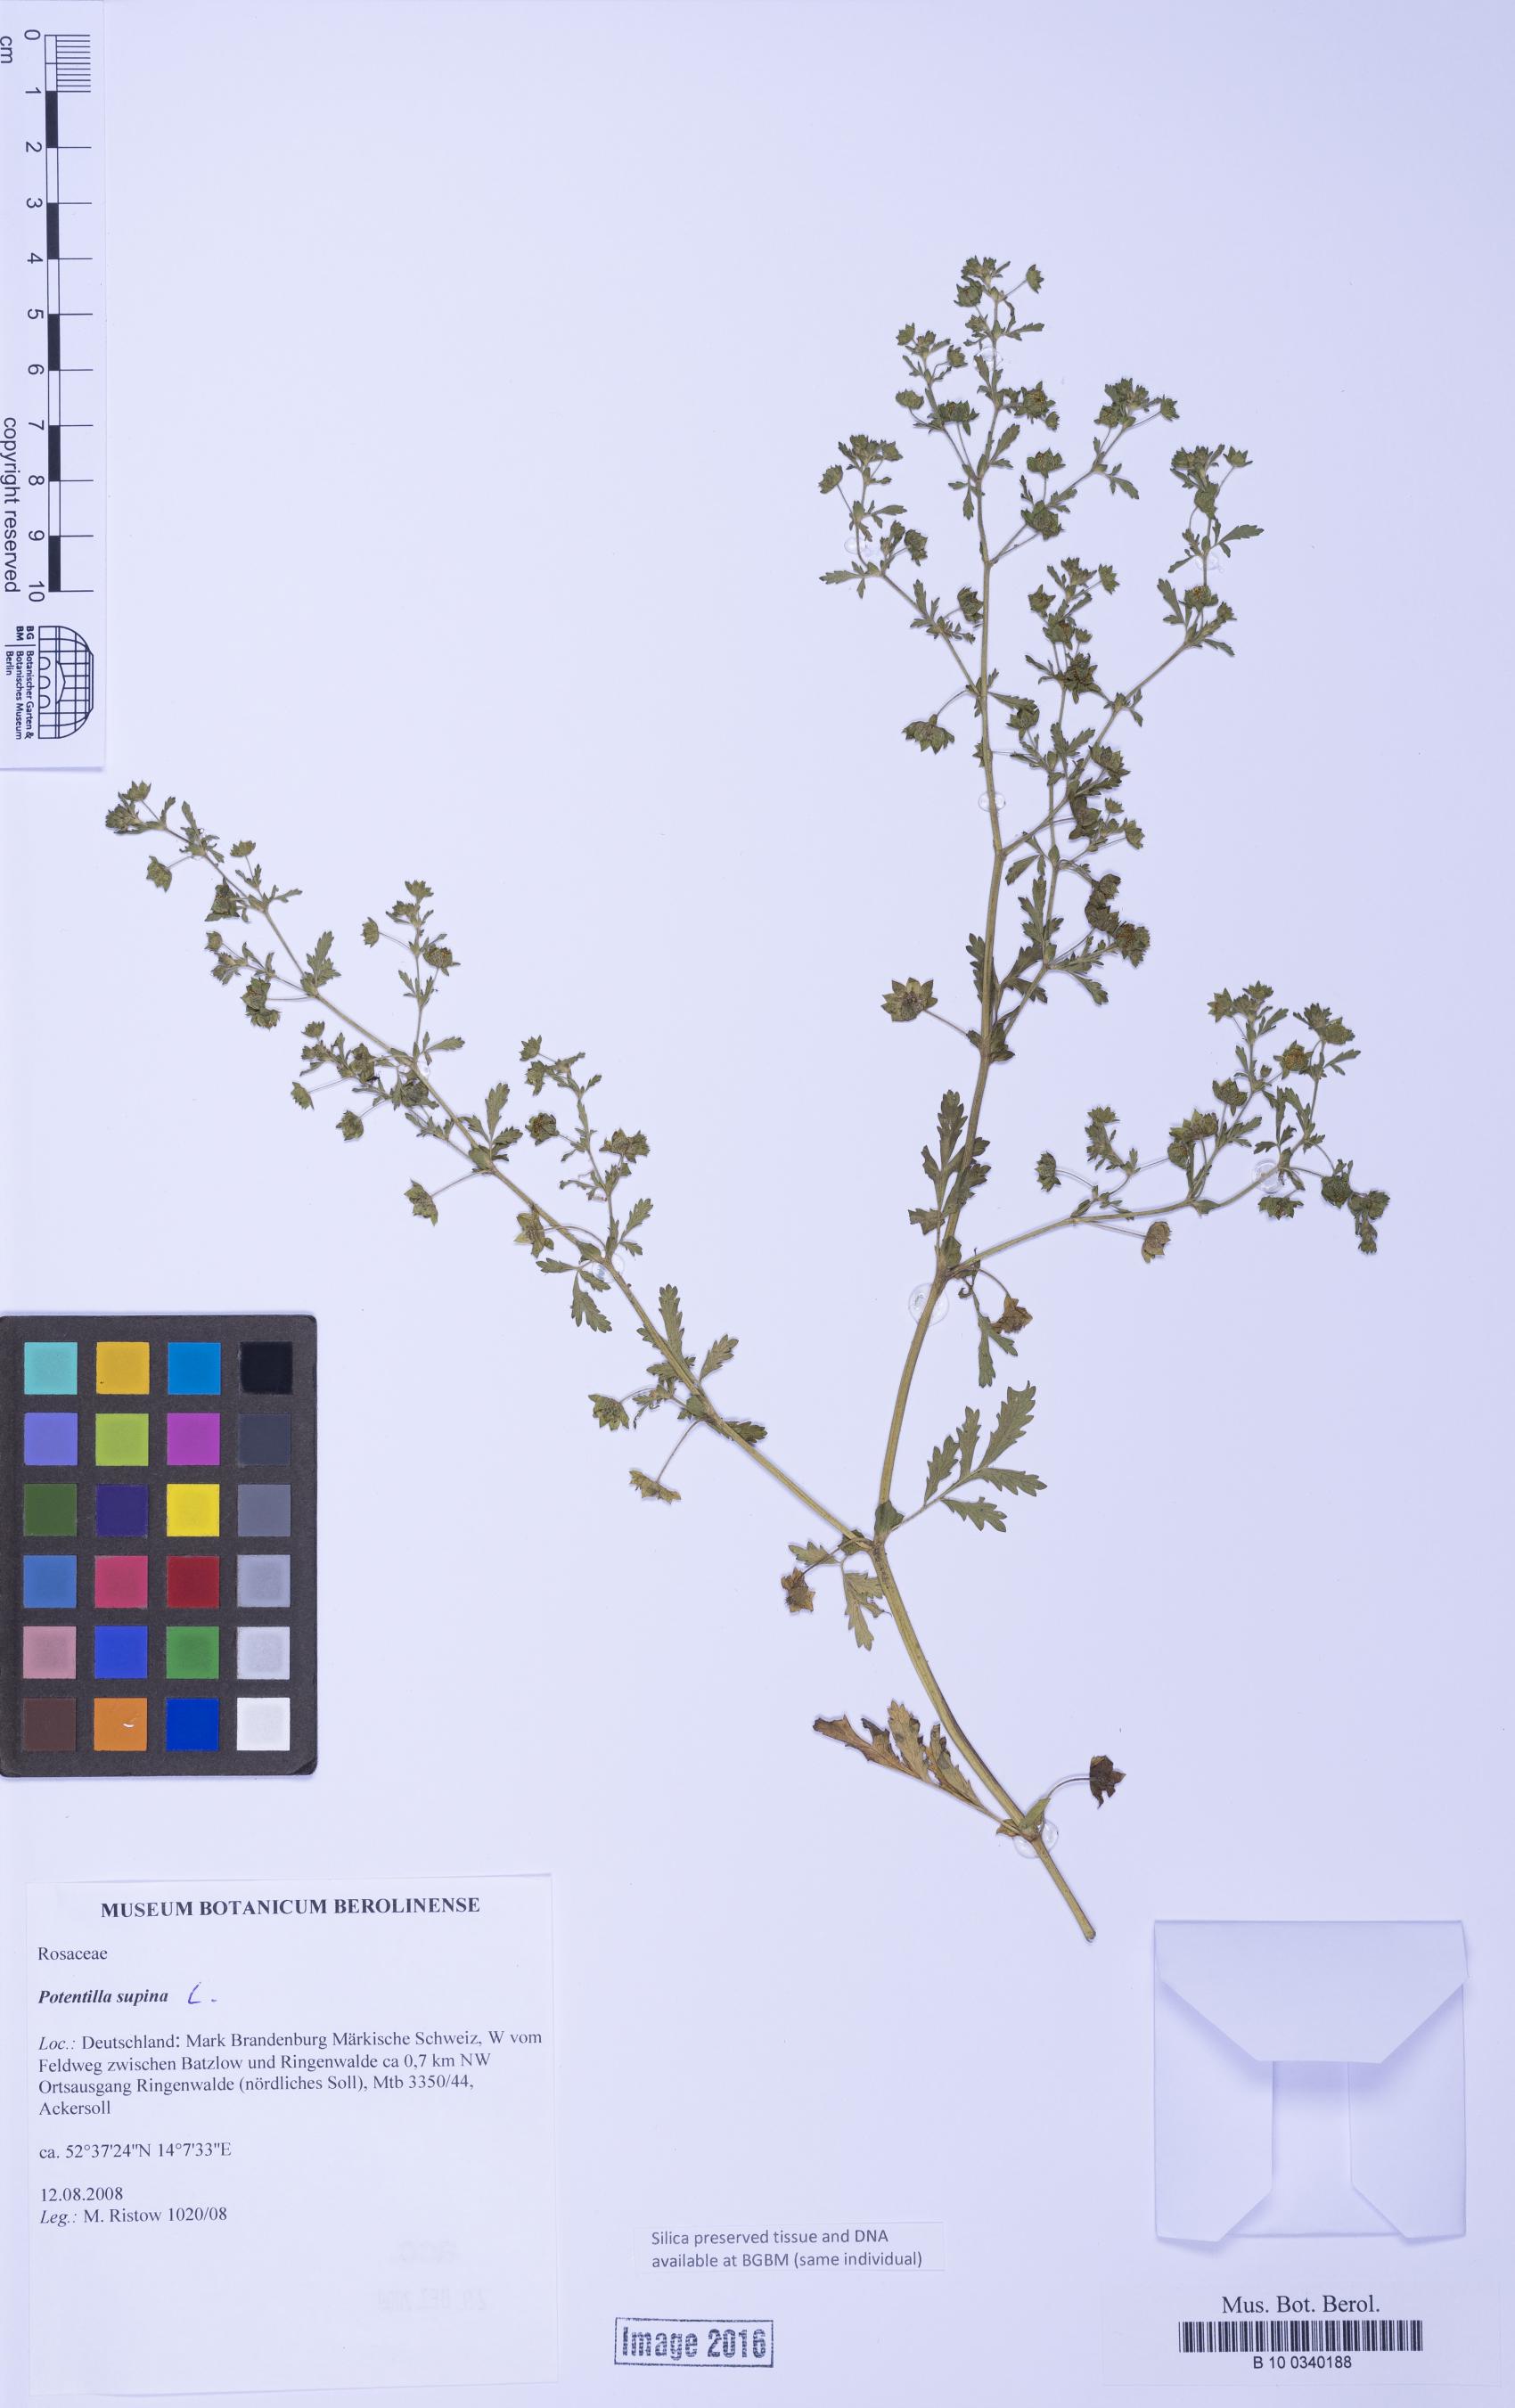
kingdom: Plantae
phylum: Tracheophyta
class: Magnoliopsida
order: Rosales
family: Rosaceae
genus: Potentilla
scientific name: Potentilla supina
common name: Prostrate cinquefoil
